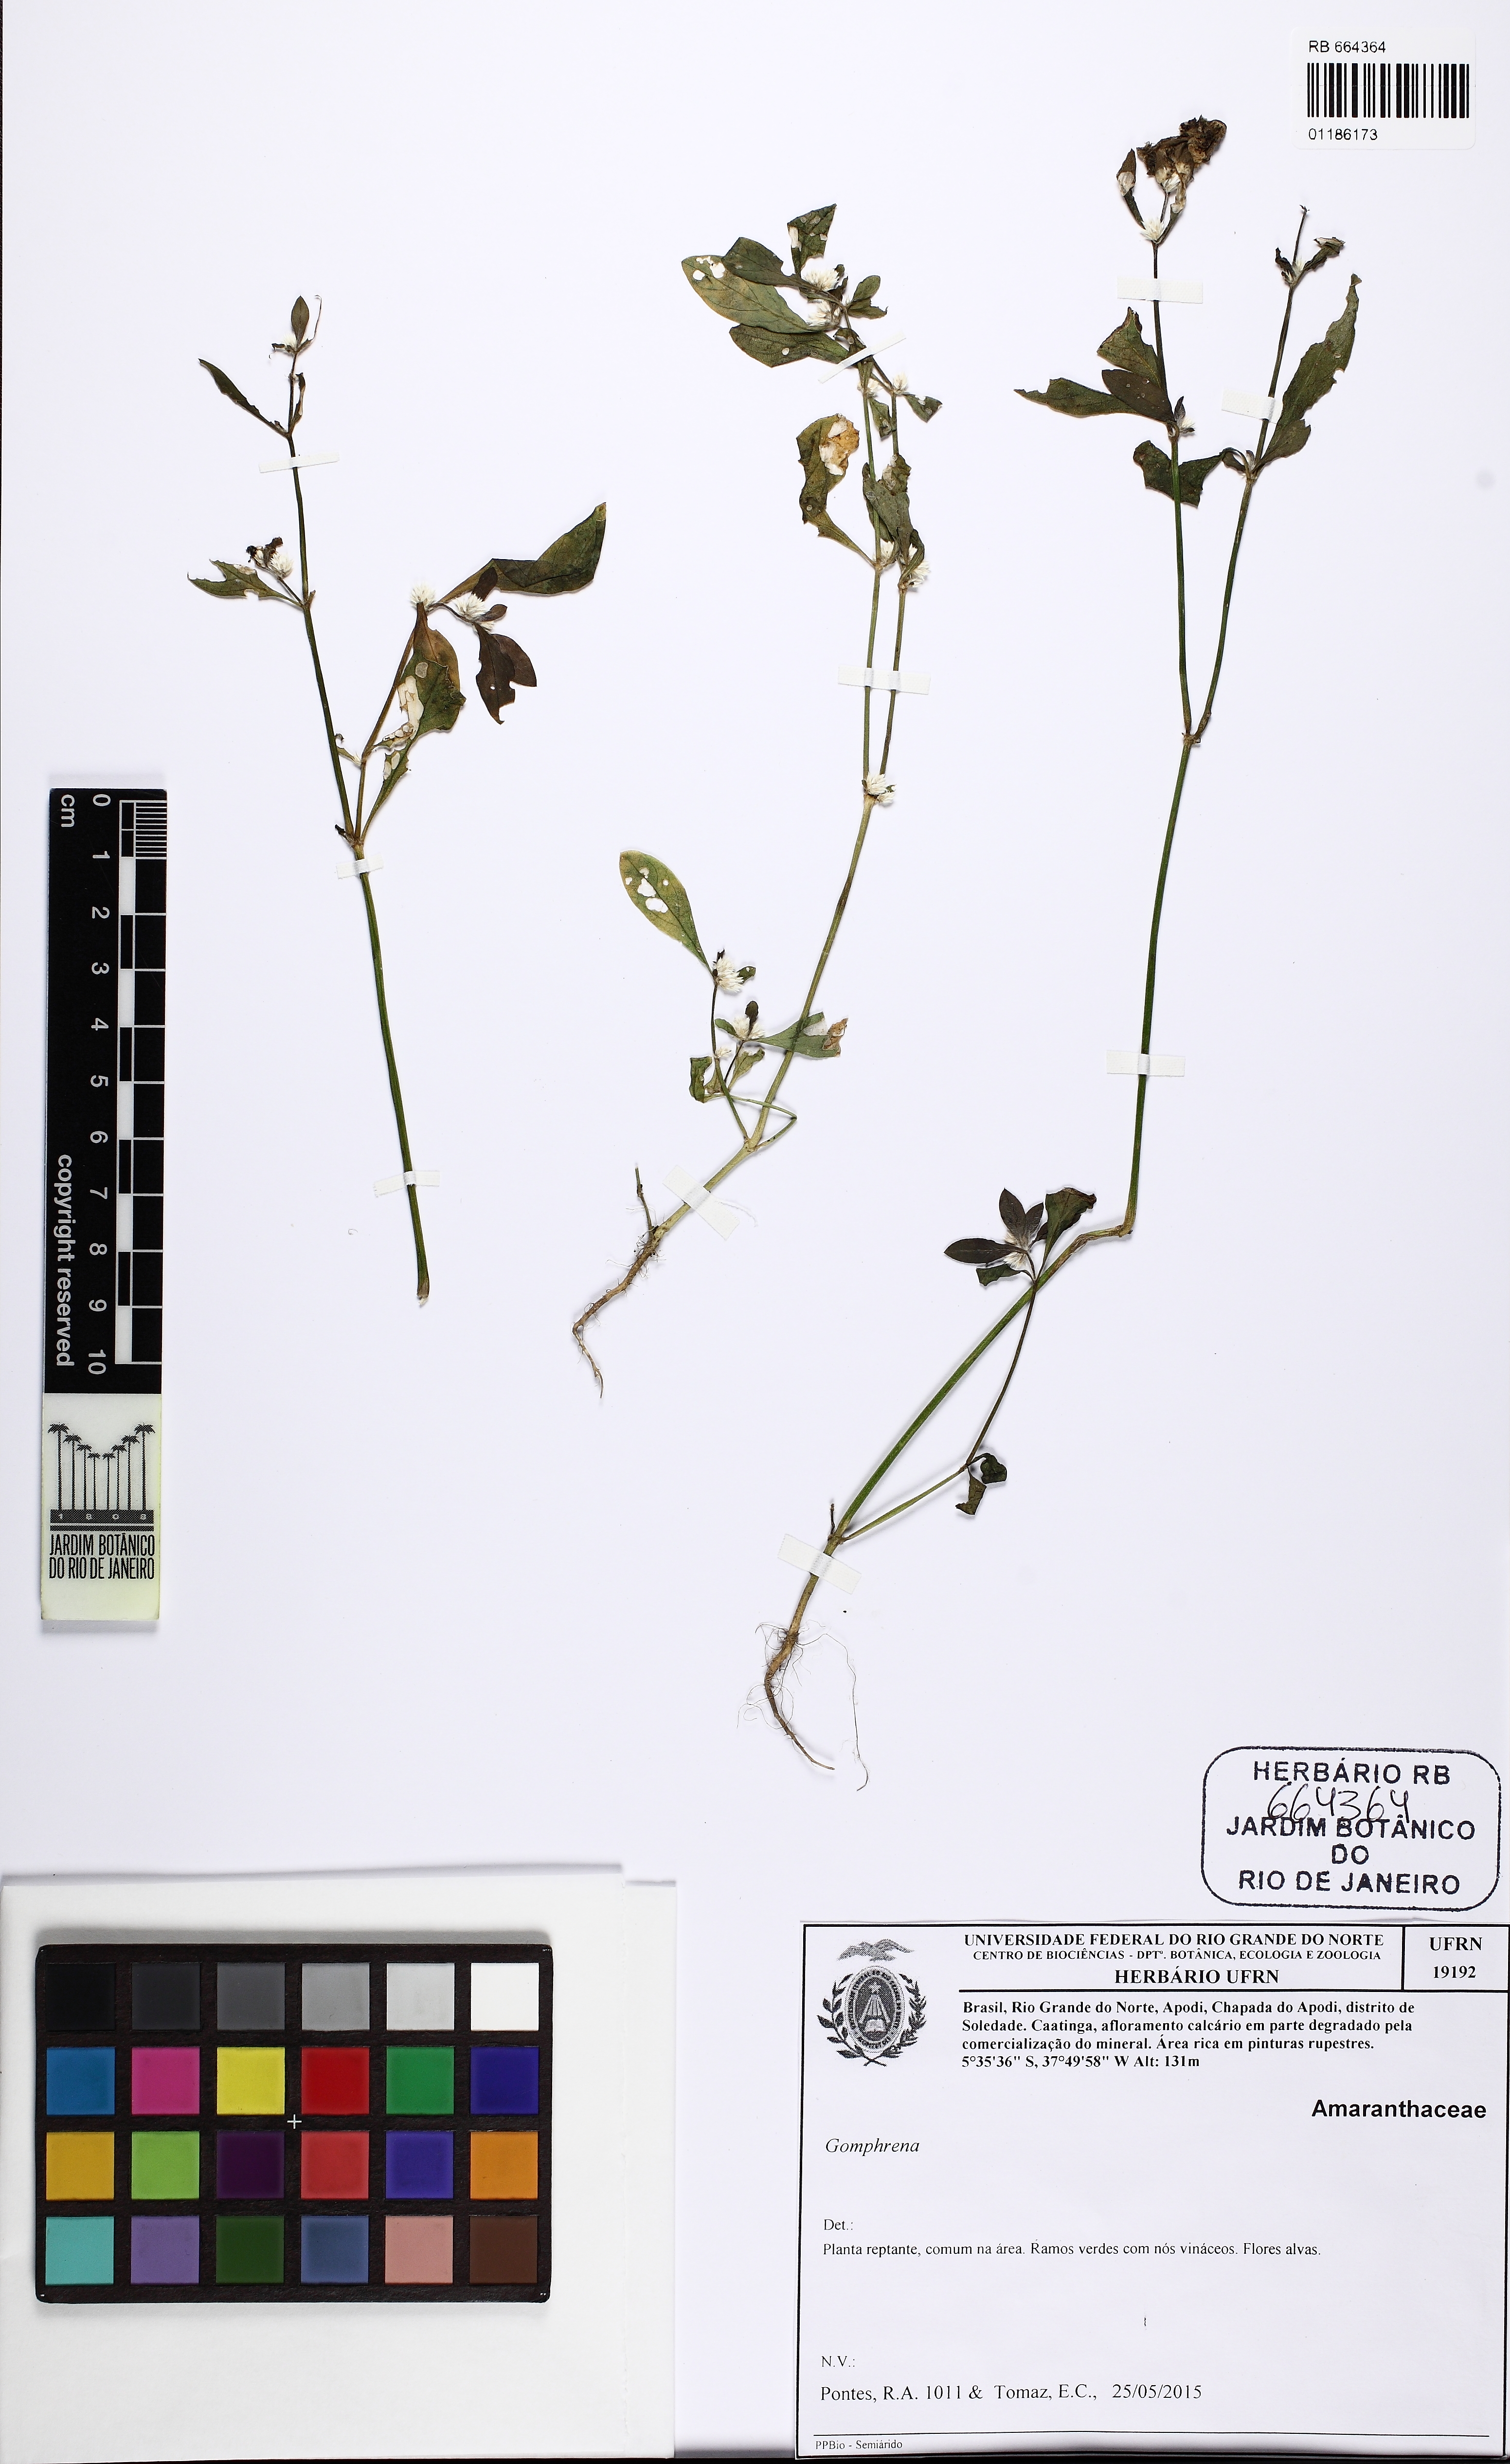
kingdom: Plantae
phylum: Tracheophyta
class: Magnoliopsida
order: Caryophyllales
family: Amaranthaceae
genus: Gomphrena
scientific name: Gomphrena
